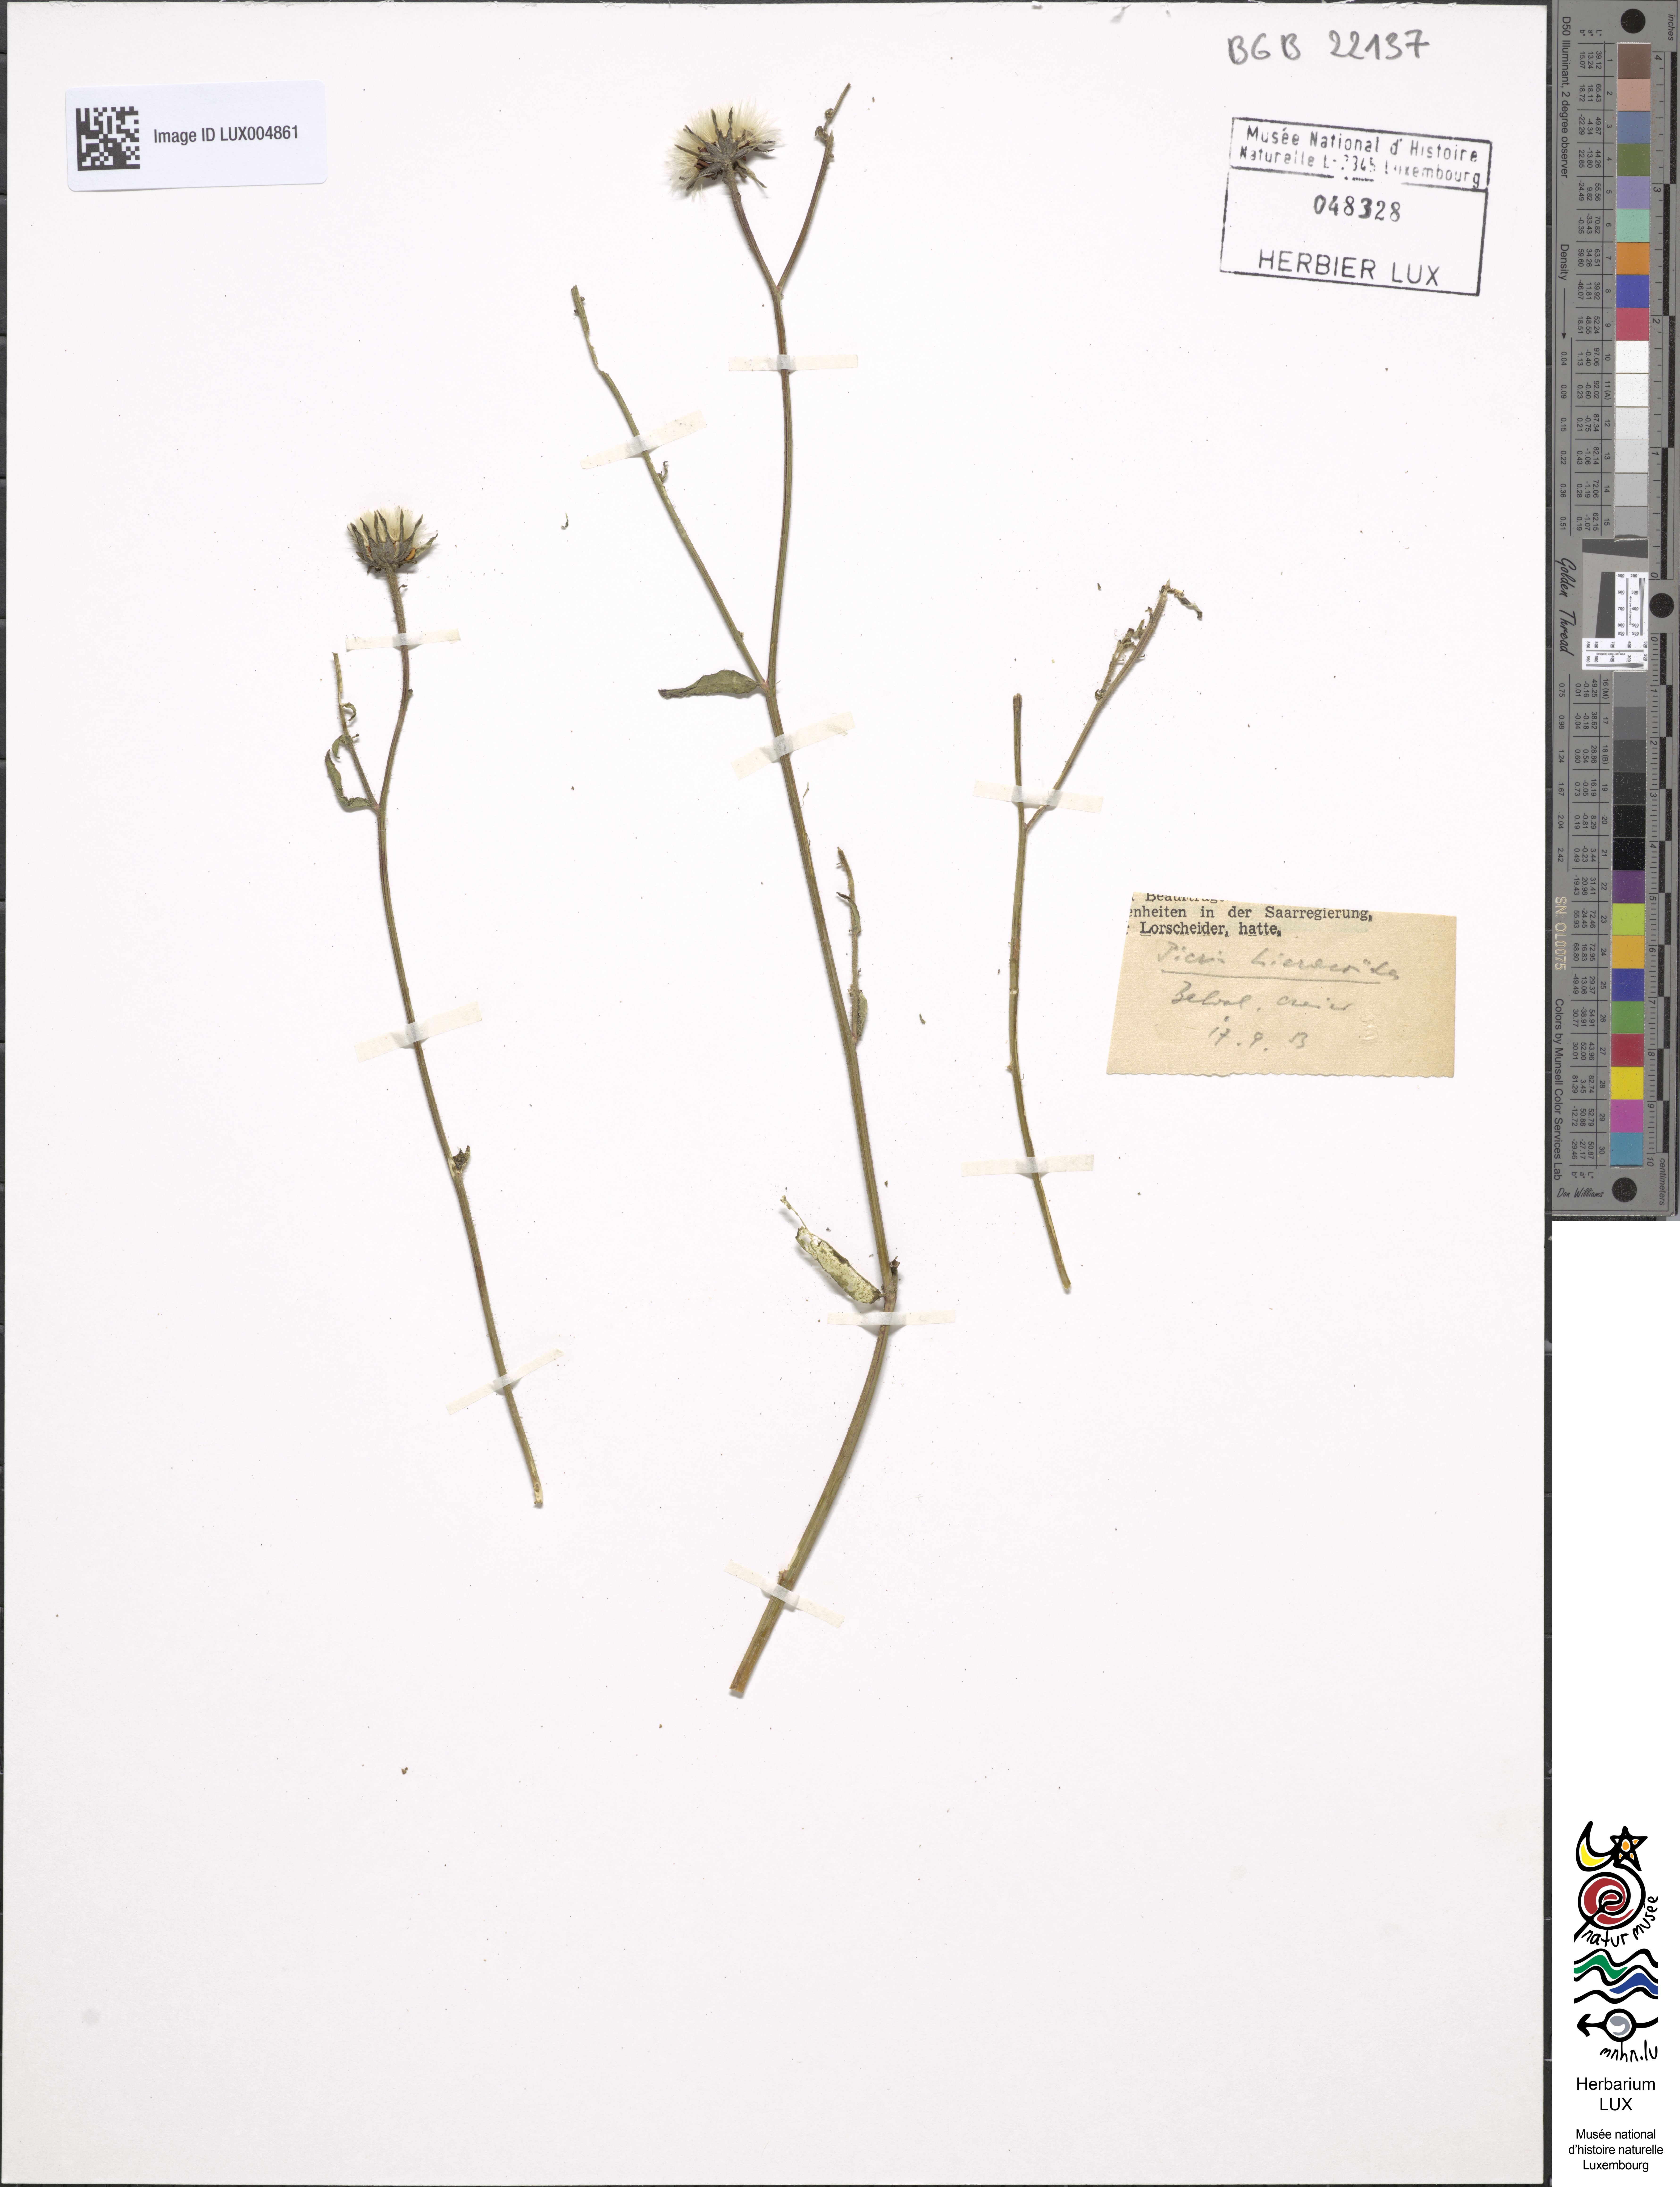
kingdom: Plantae
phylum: Tracheophyta
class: Magnoliopsida
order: Asterales
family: Asteraceae
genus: Picris
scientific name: Picris hieracioides
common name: Hawkweed oxtongue
